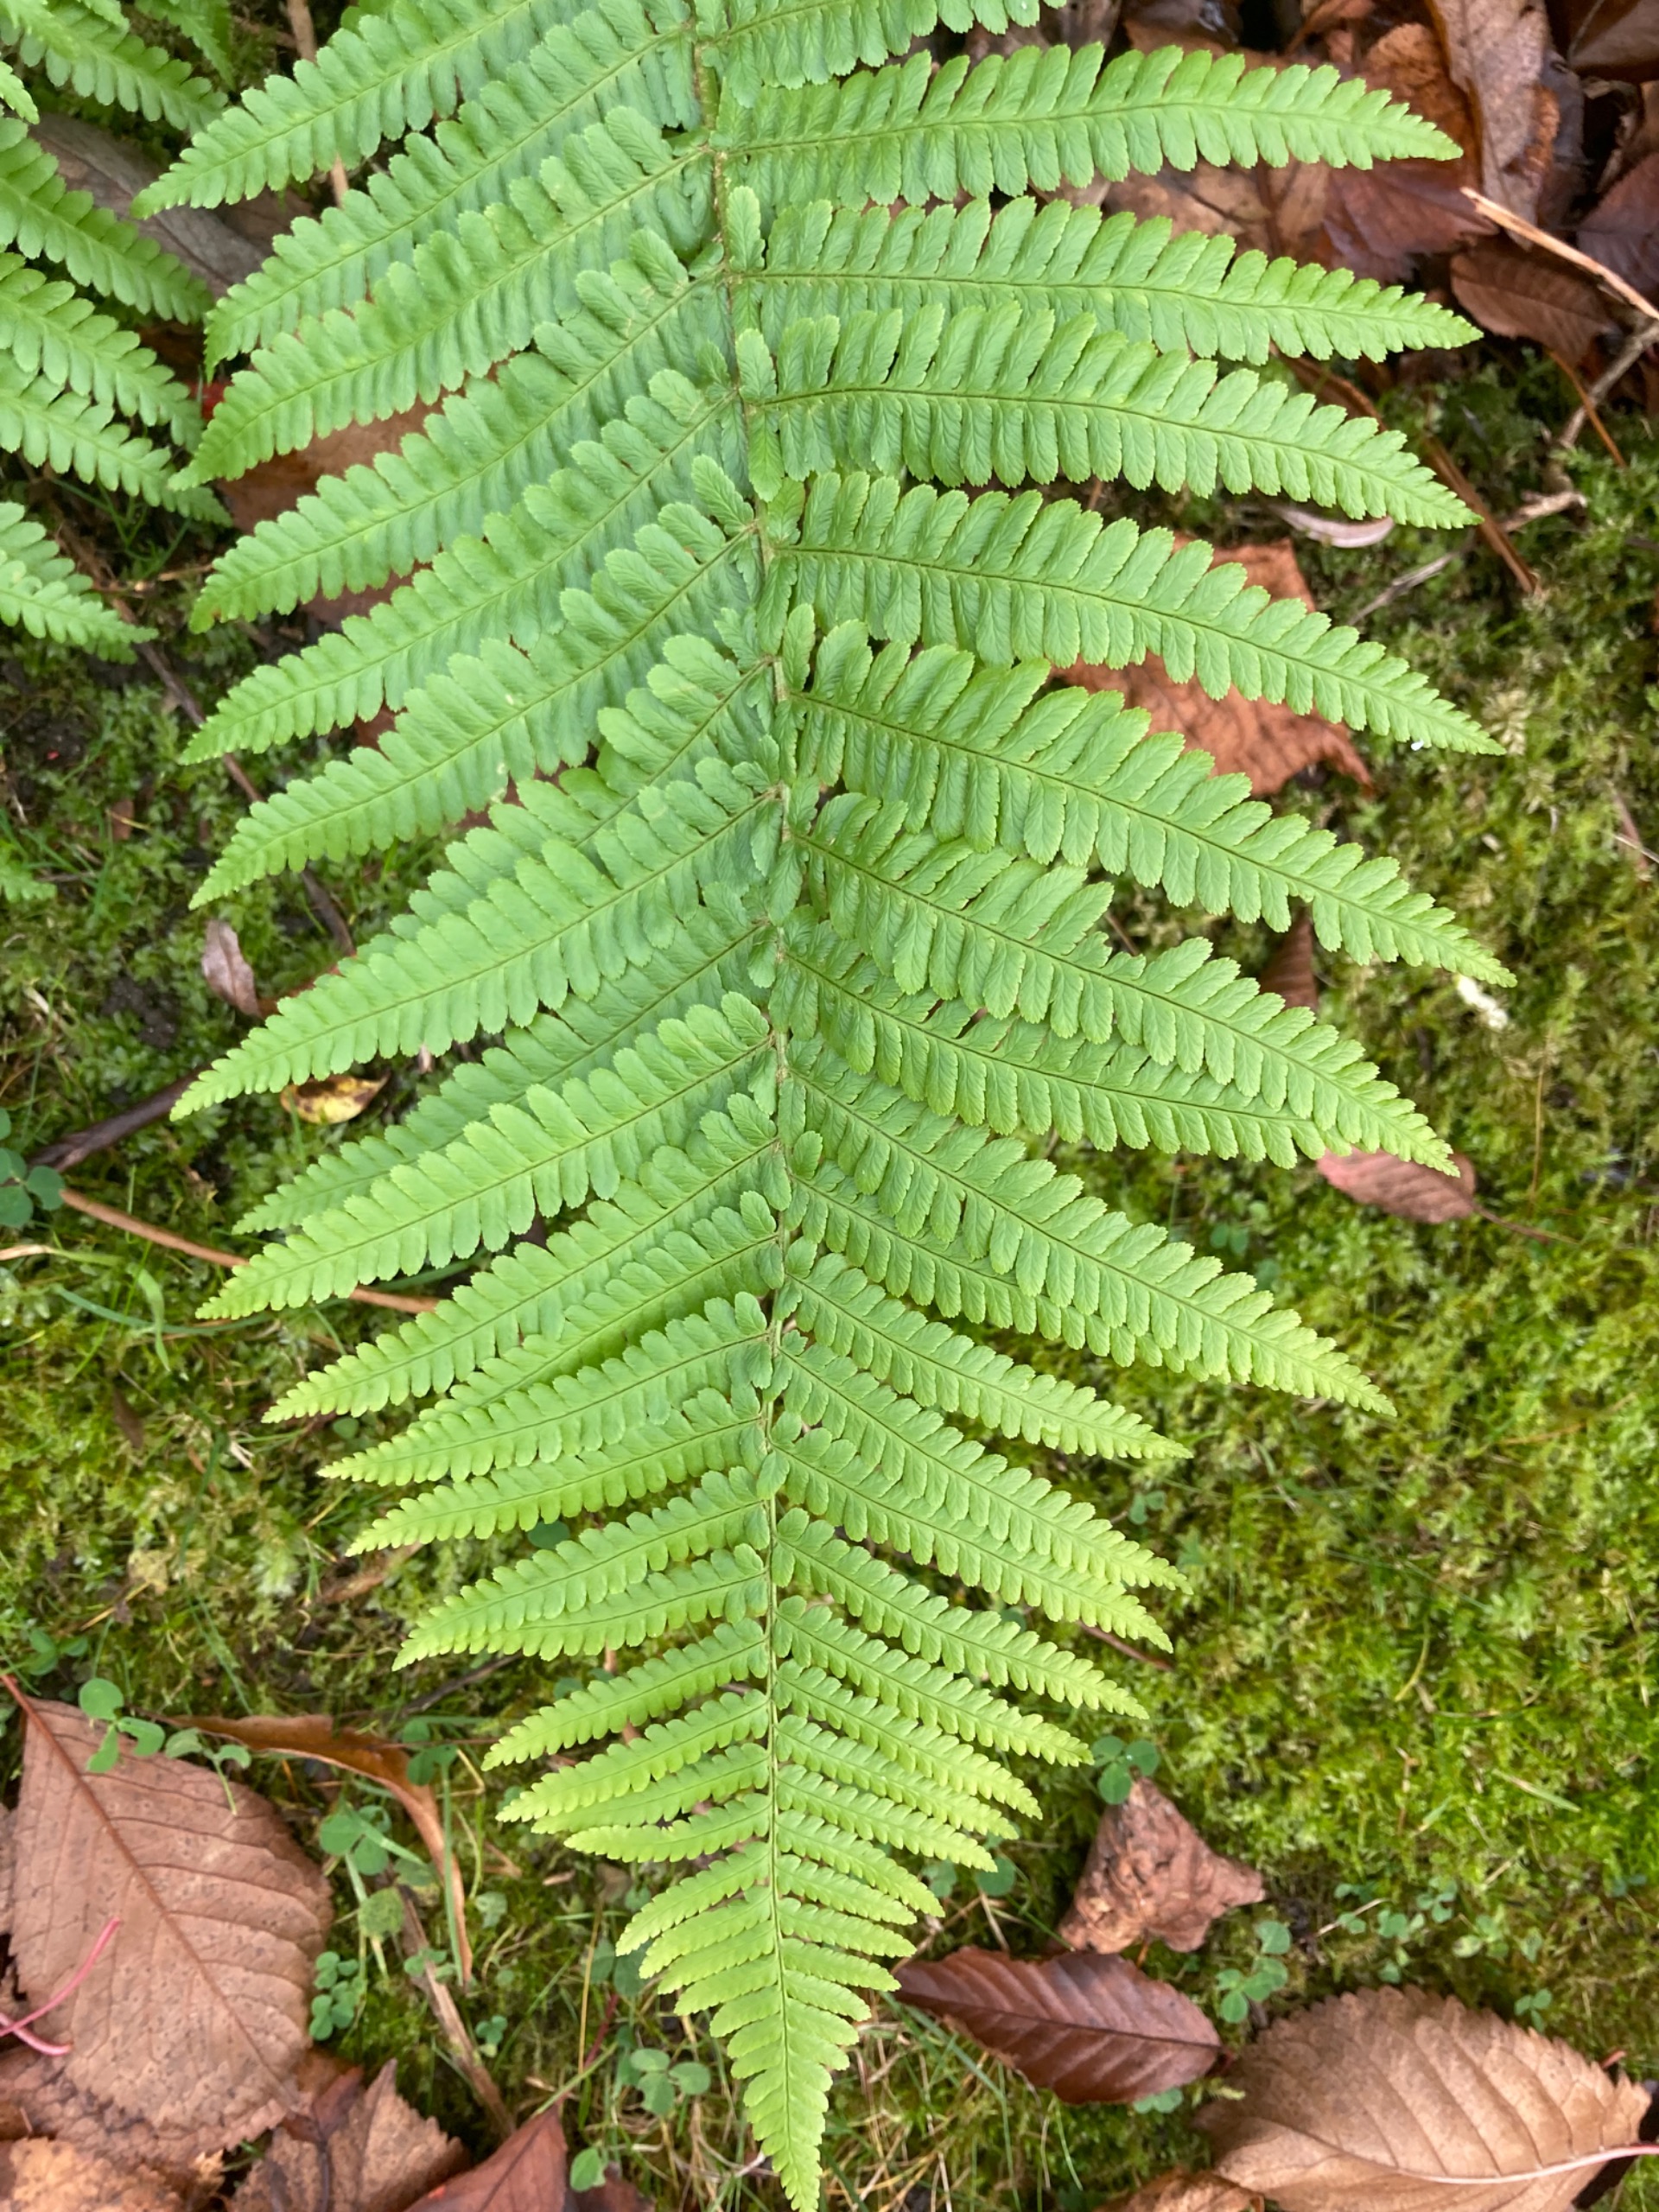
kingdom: Plantae
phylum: Tracheophyta
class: Polypodiopsida
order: Polypodiales
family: Dryopteridaceae
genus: Dryopteris
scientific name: Dryopteris filix-mas
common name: Almindelig mangeløv
